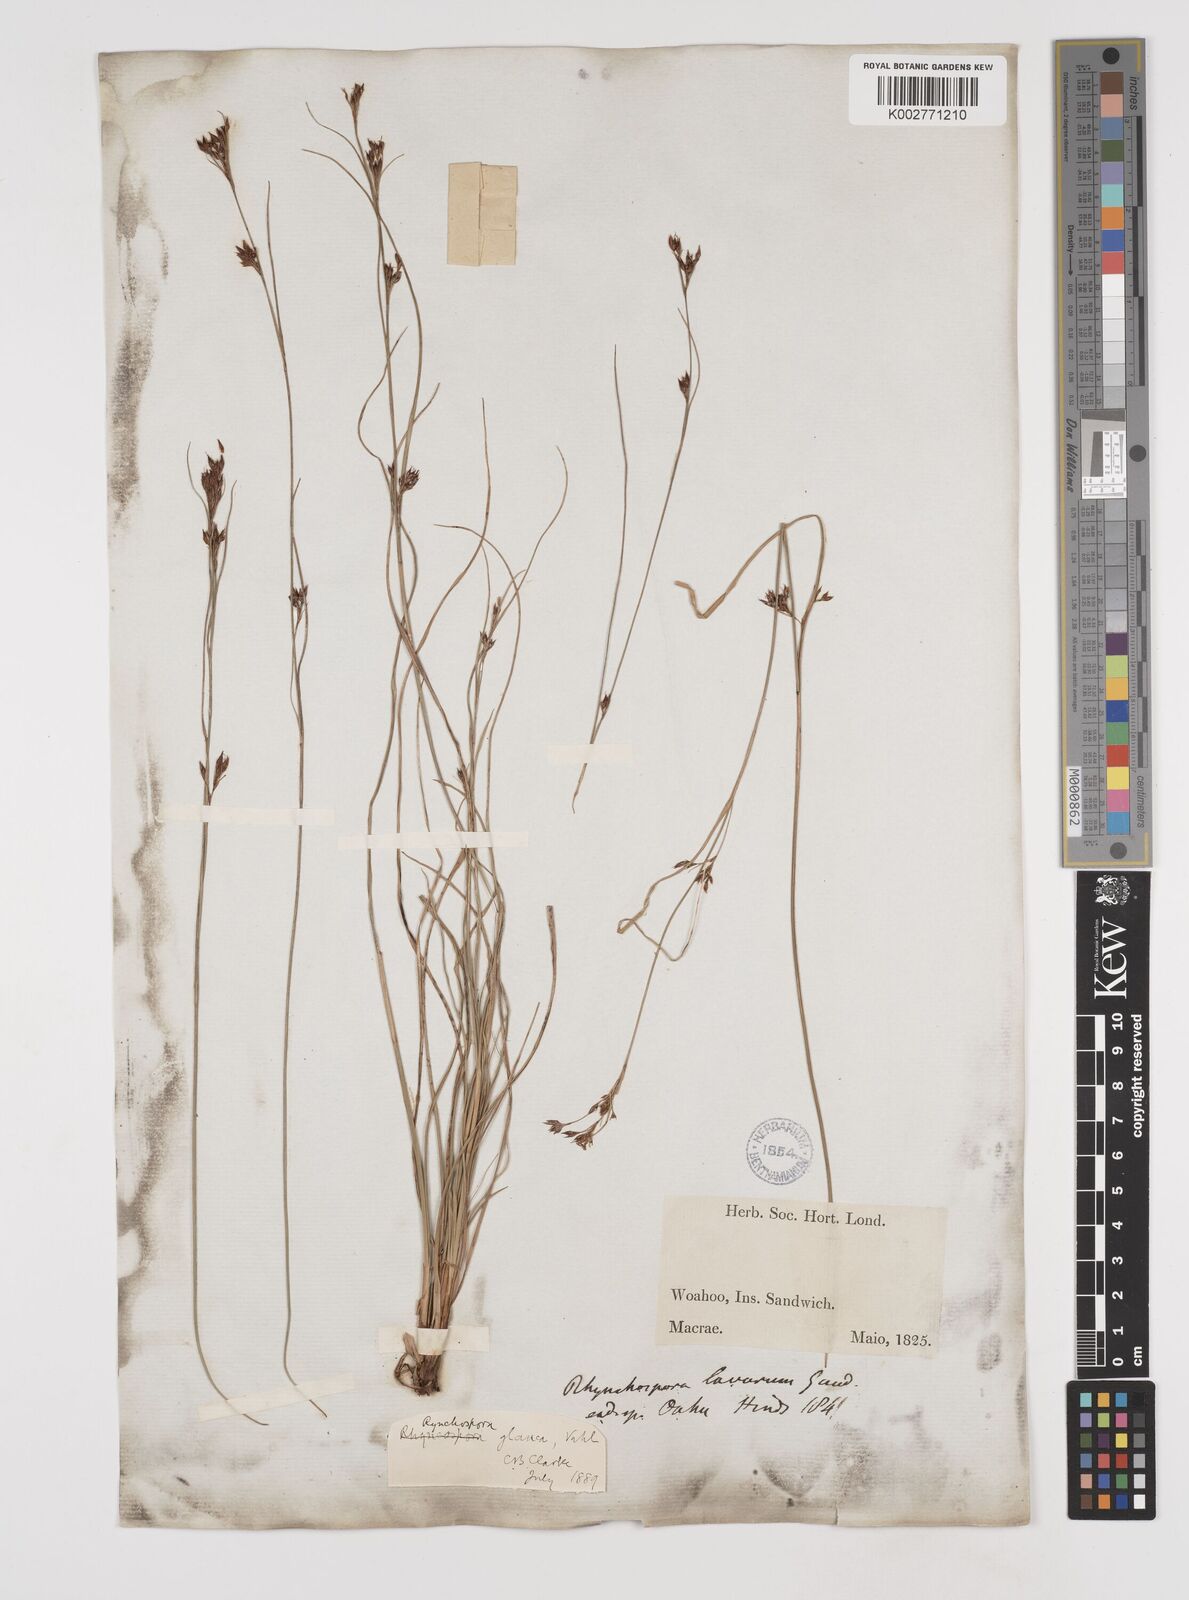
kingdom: Plantae
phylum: Tracheophyta
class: Liliopsida
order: Poales
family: Cyperaceae
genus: Rhynchospora
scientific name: Rhynchospora rugosa
